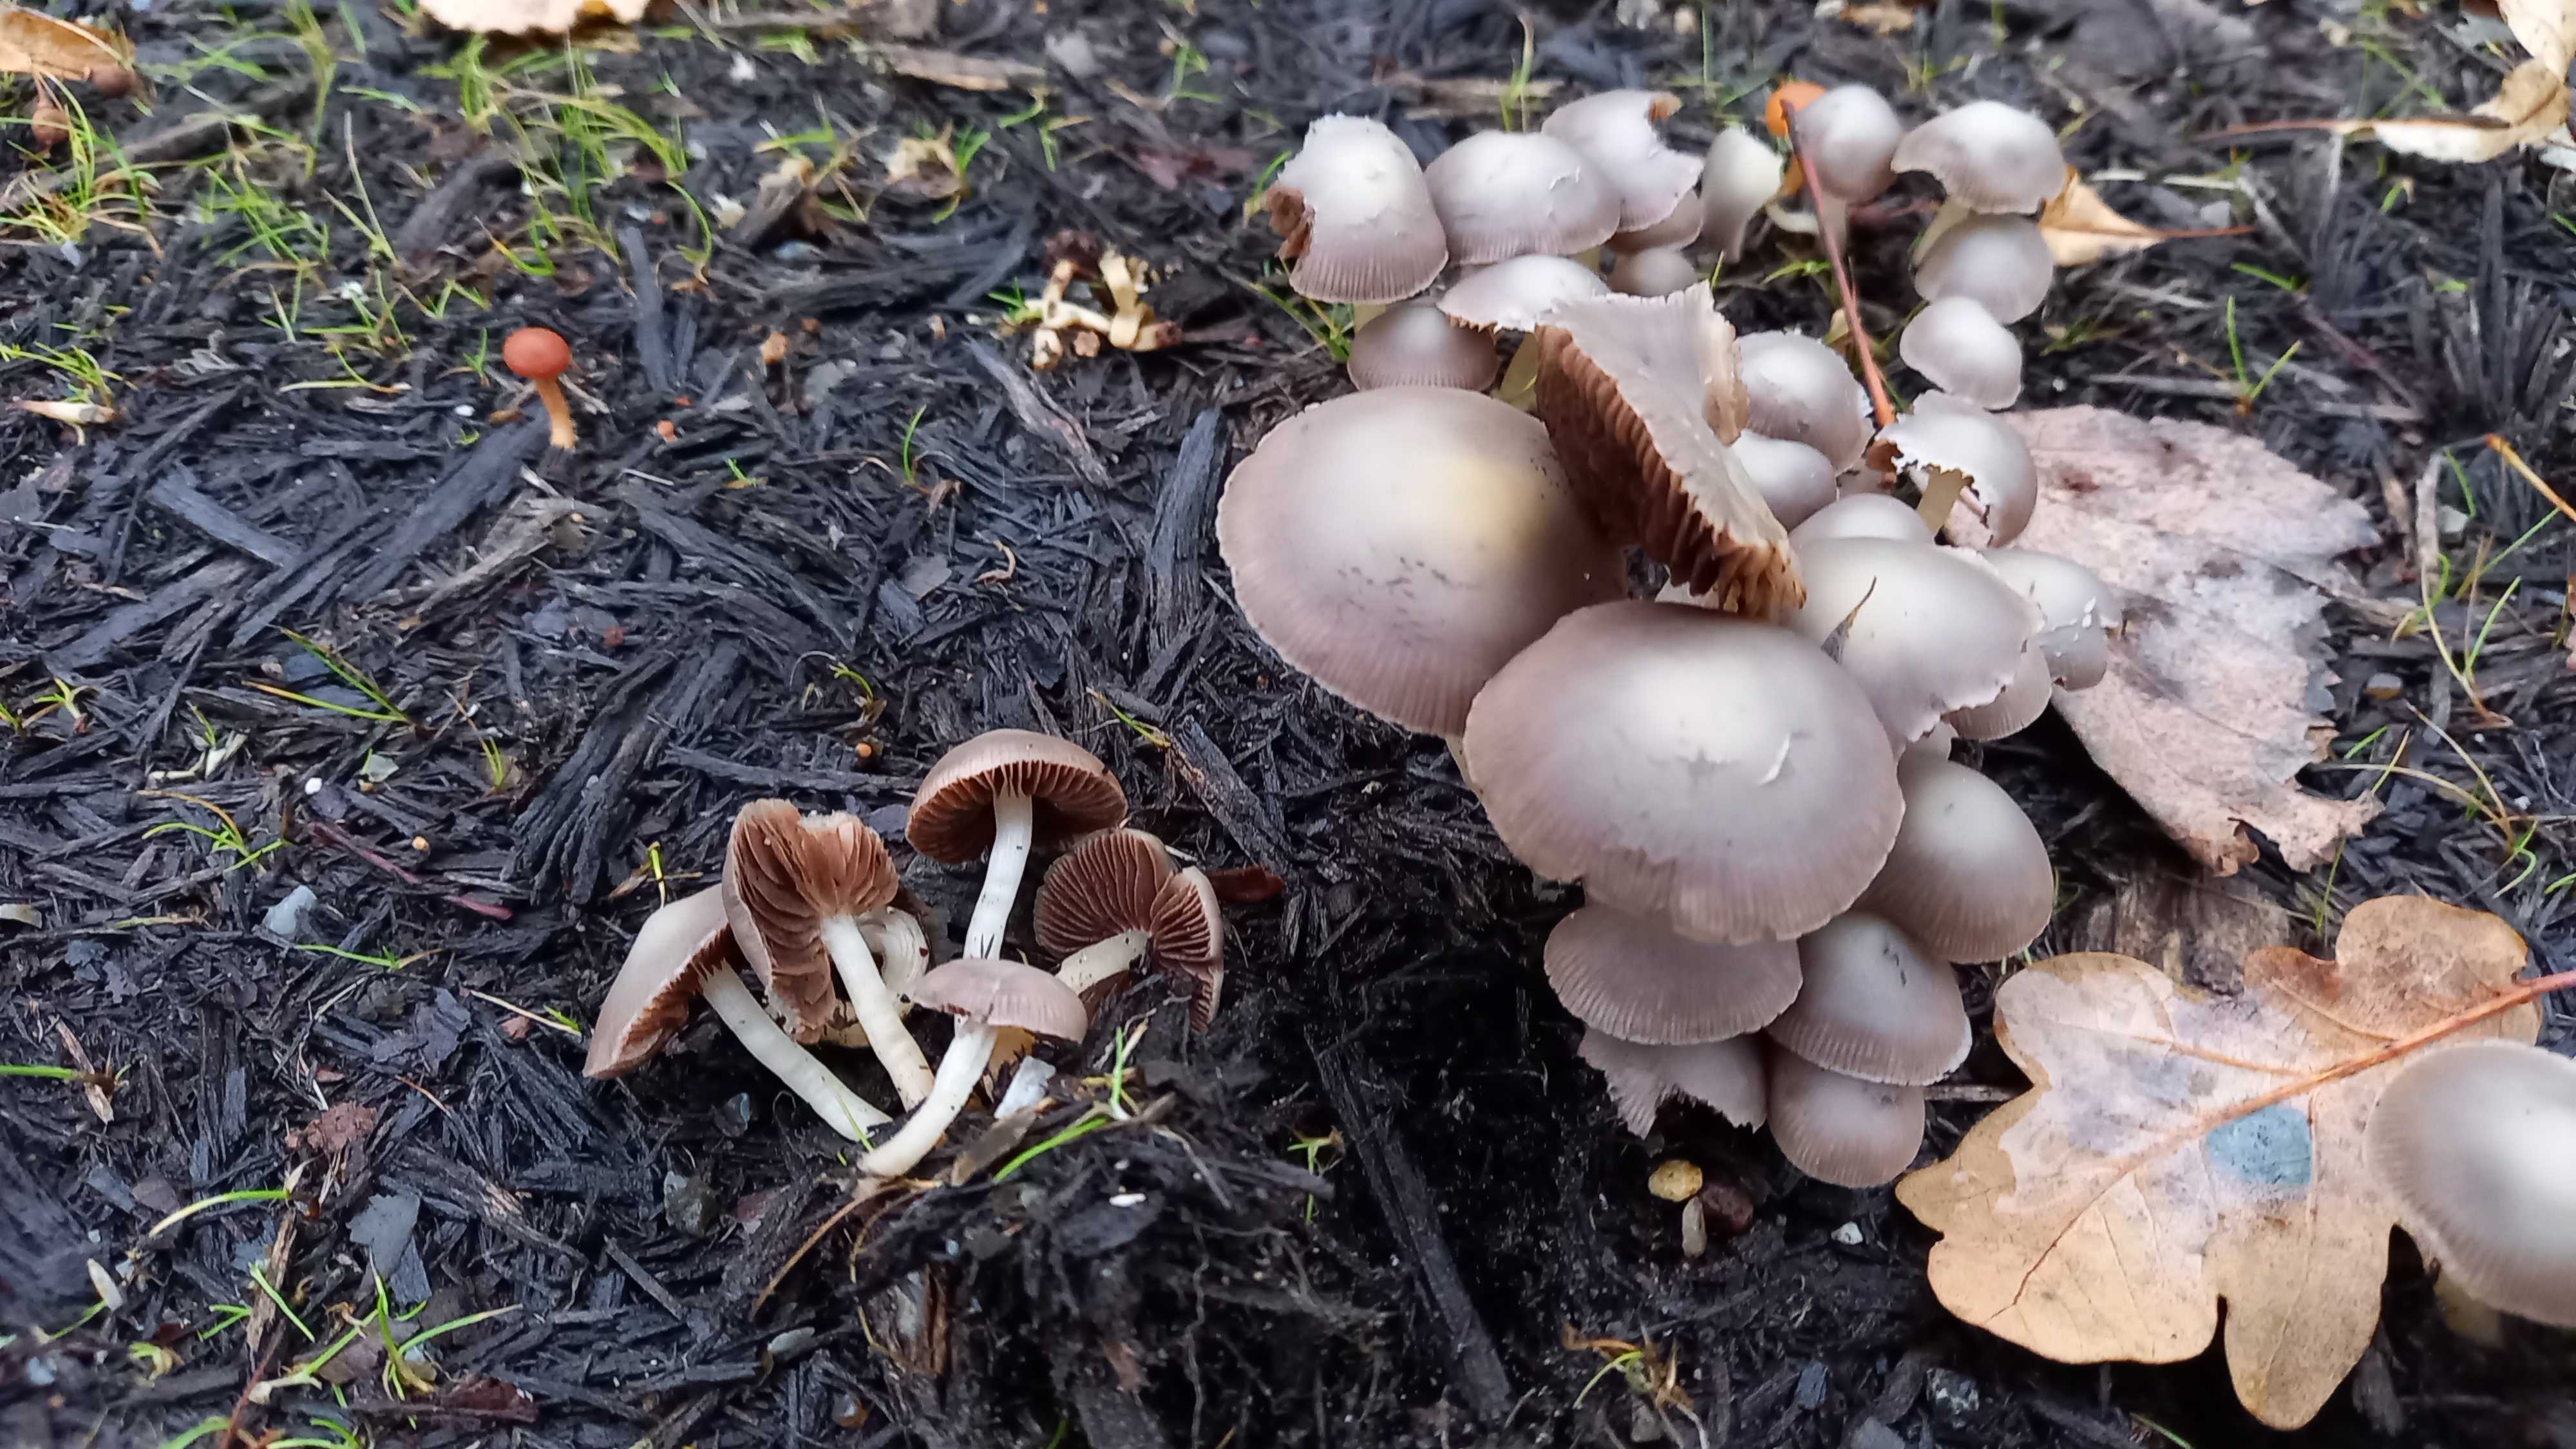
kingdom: Fungi
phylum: Basidiomycota
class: Agaricomycetes
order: Agaricales
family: Psathyrellaceae
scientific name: Psathyrellaceae
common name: mørkhatfamilien
